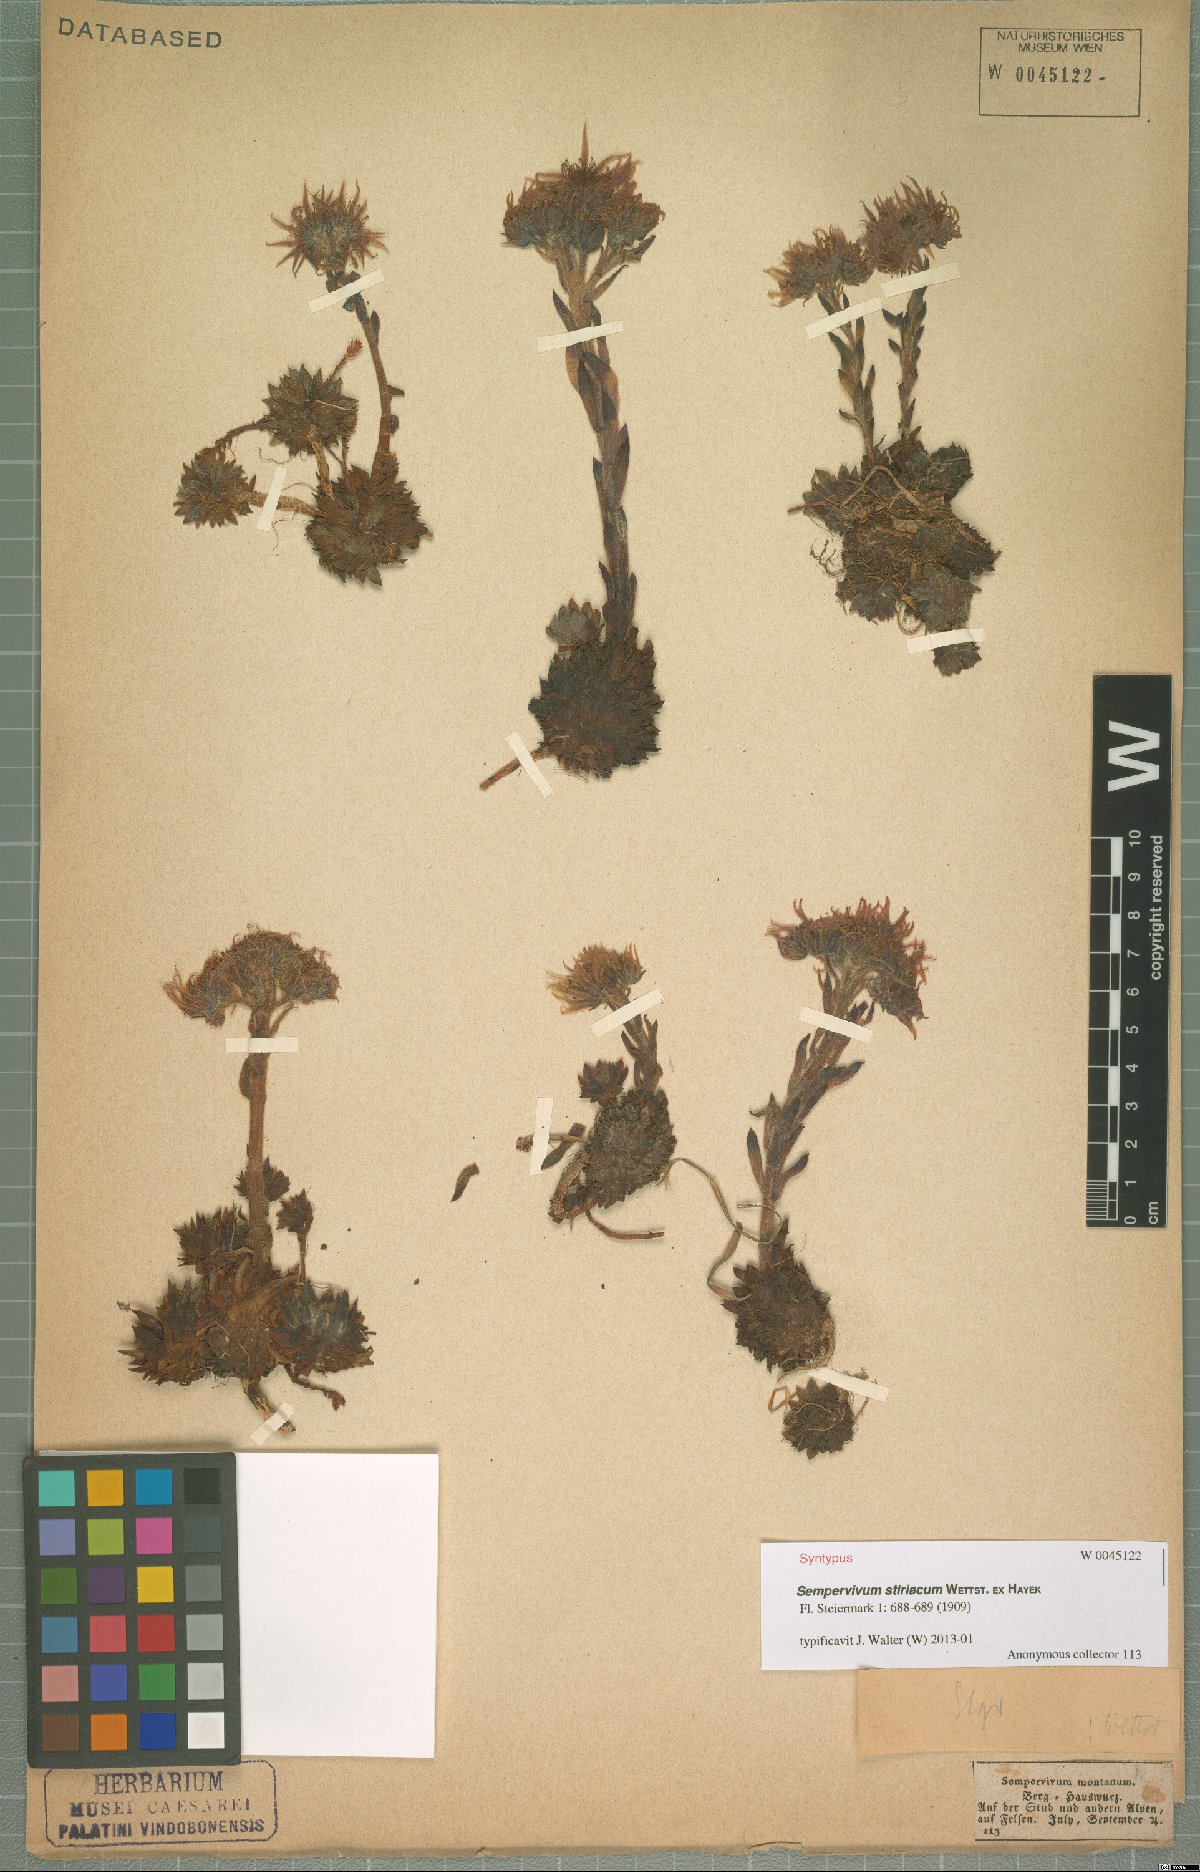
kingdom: Plantae
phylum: Tracheophyta
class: Magnoliopsida
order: Saxifragales
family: Crassulaceae
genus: Sempervivum
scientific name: Sempervivum montanum
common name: Mountain house-leek
